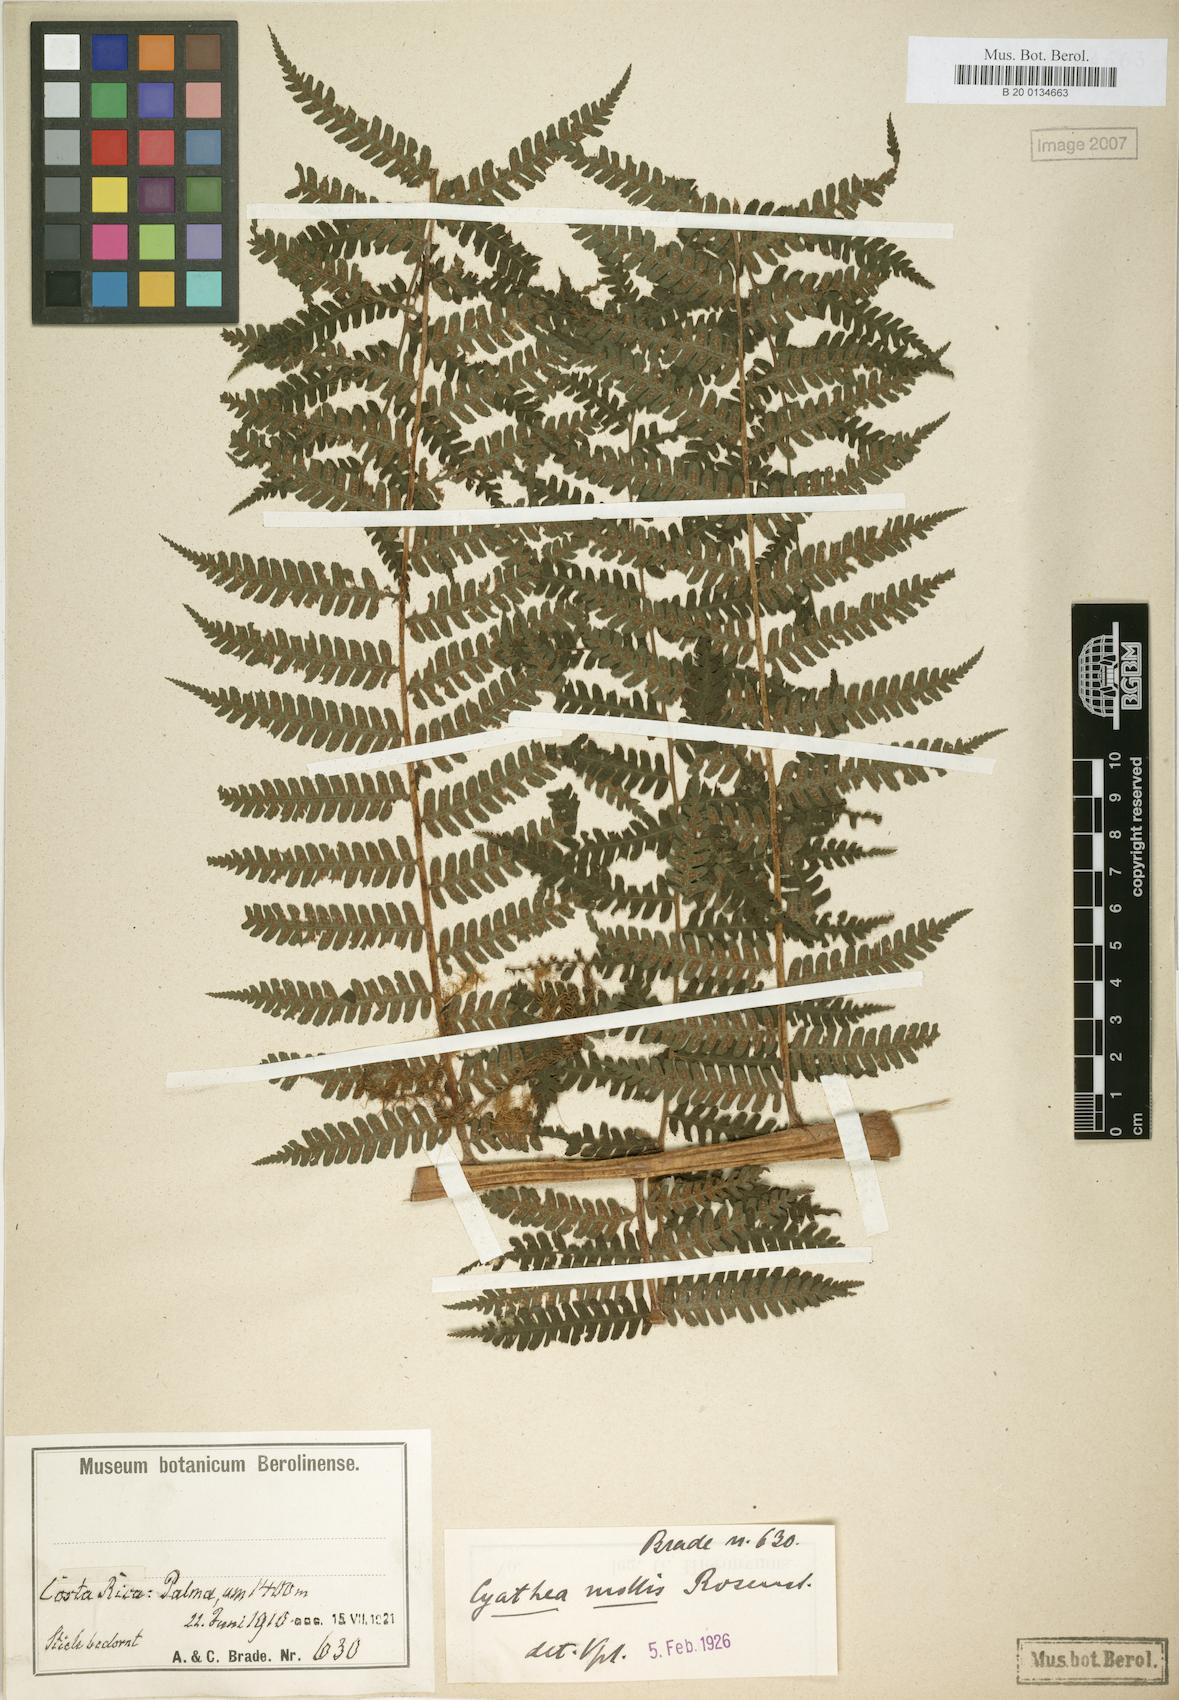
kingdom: Plantae
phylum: Tracheophyta
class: Polypodiopsida
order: Cyatheales
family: Cyatheaceae
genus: Cyathea
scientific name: Cyathea fulva
